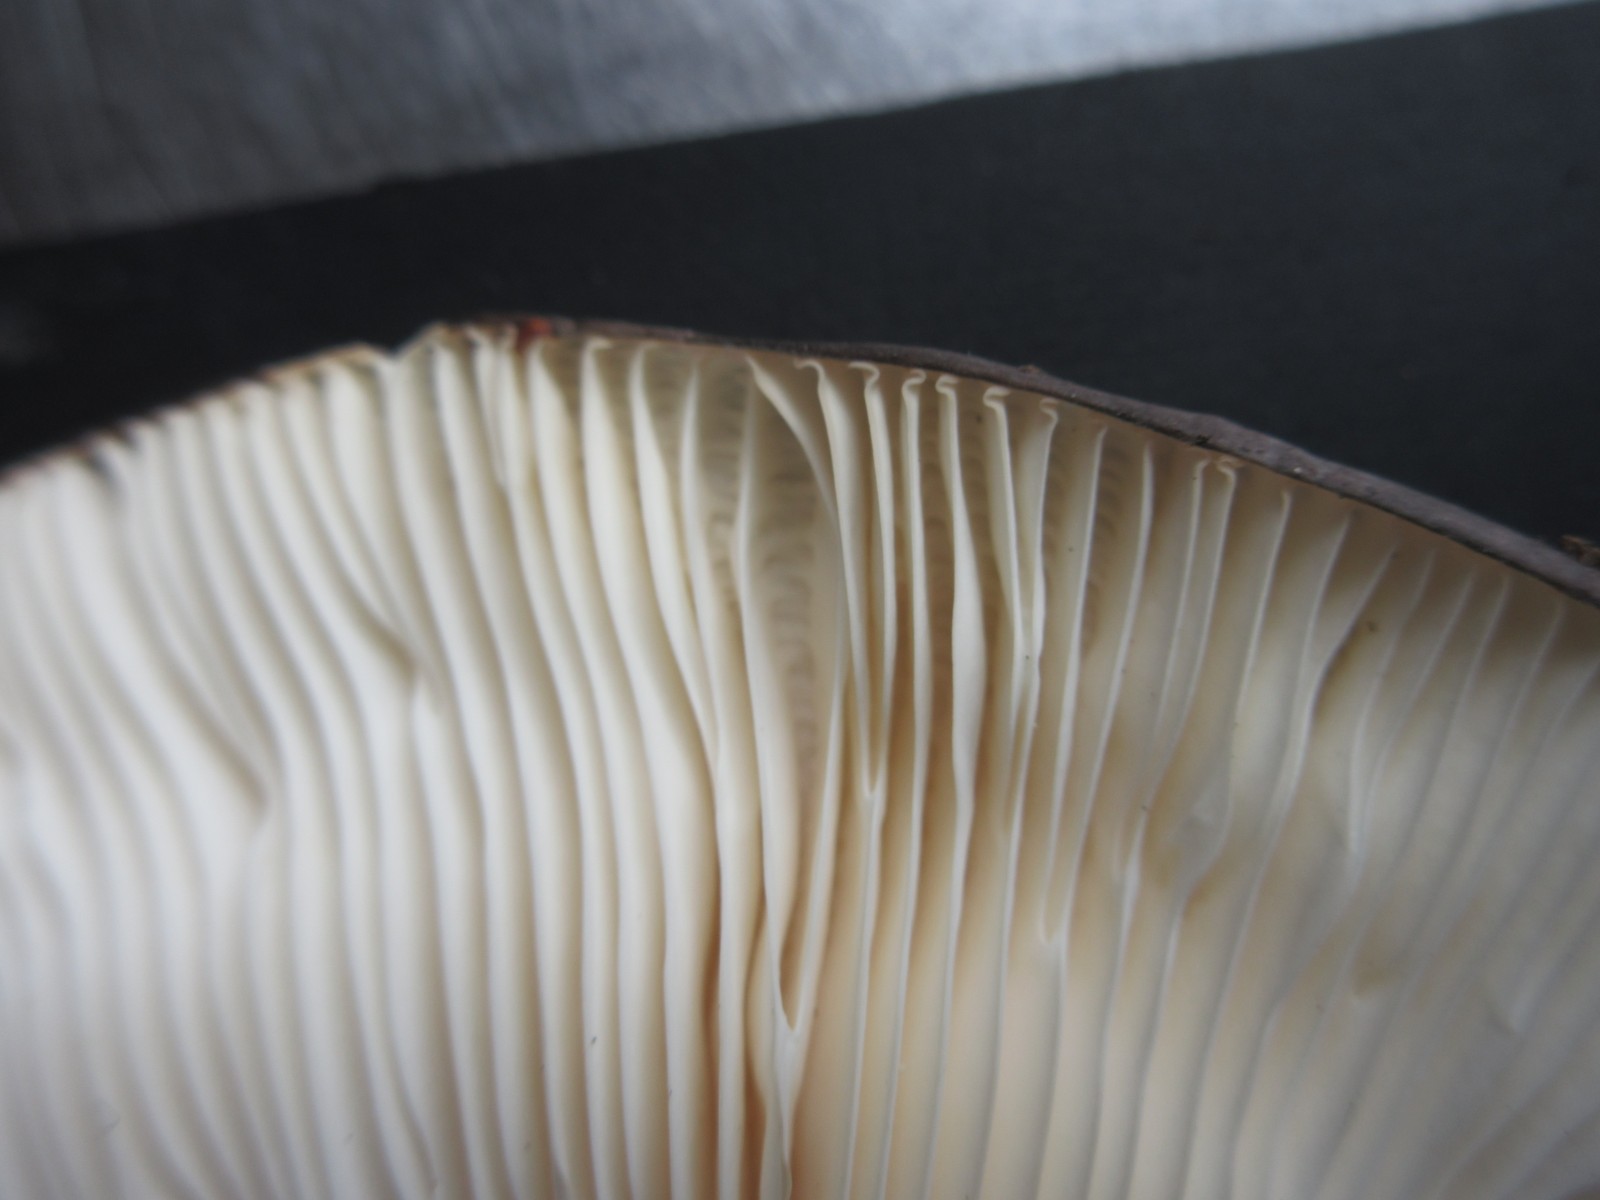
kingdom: Fungi
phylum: Basidiomycota
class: Agaricomycetes
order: Russulales
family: Russulaceae
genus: Russula
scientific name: Russula
